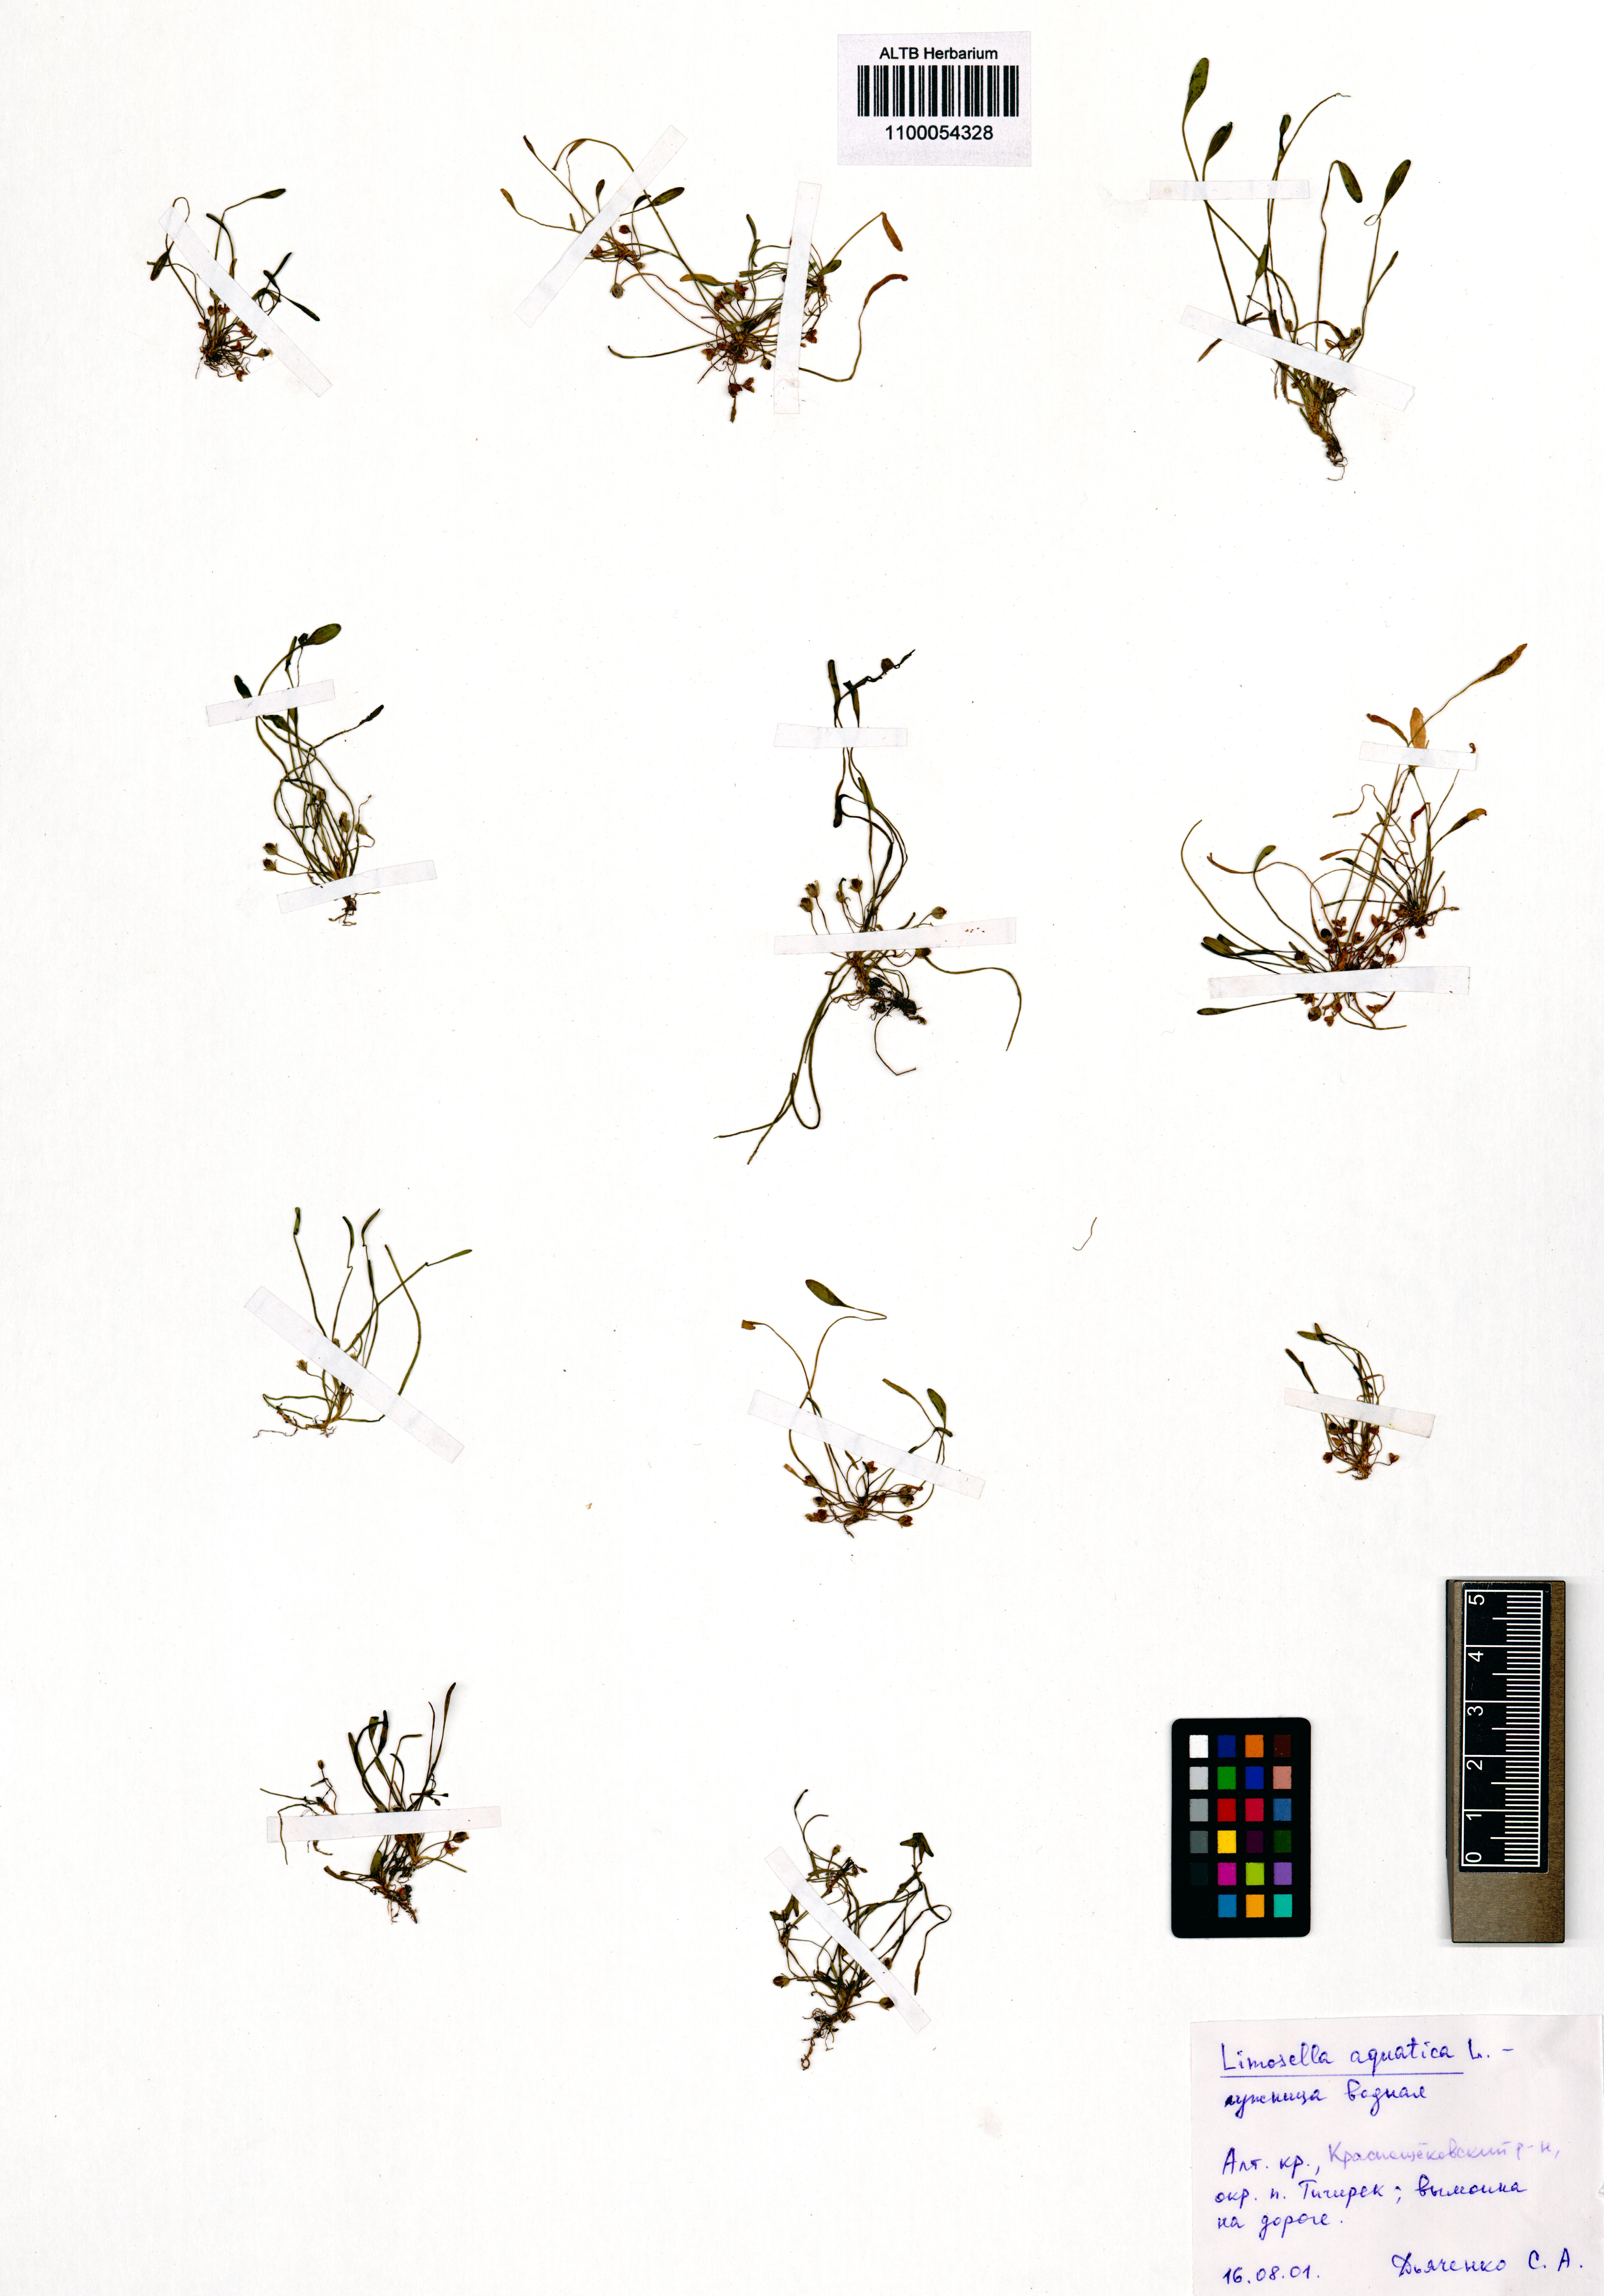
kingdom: Plantae
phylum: Tracheophyta
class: Magnoliopsida
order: Lamiales
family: Scrophulariaceae
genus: Limosella
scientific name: Limosella aquatica
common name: Mudwort
